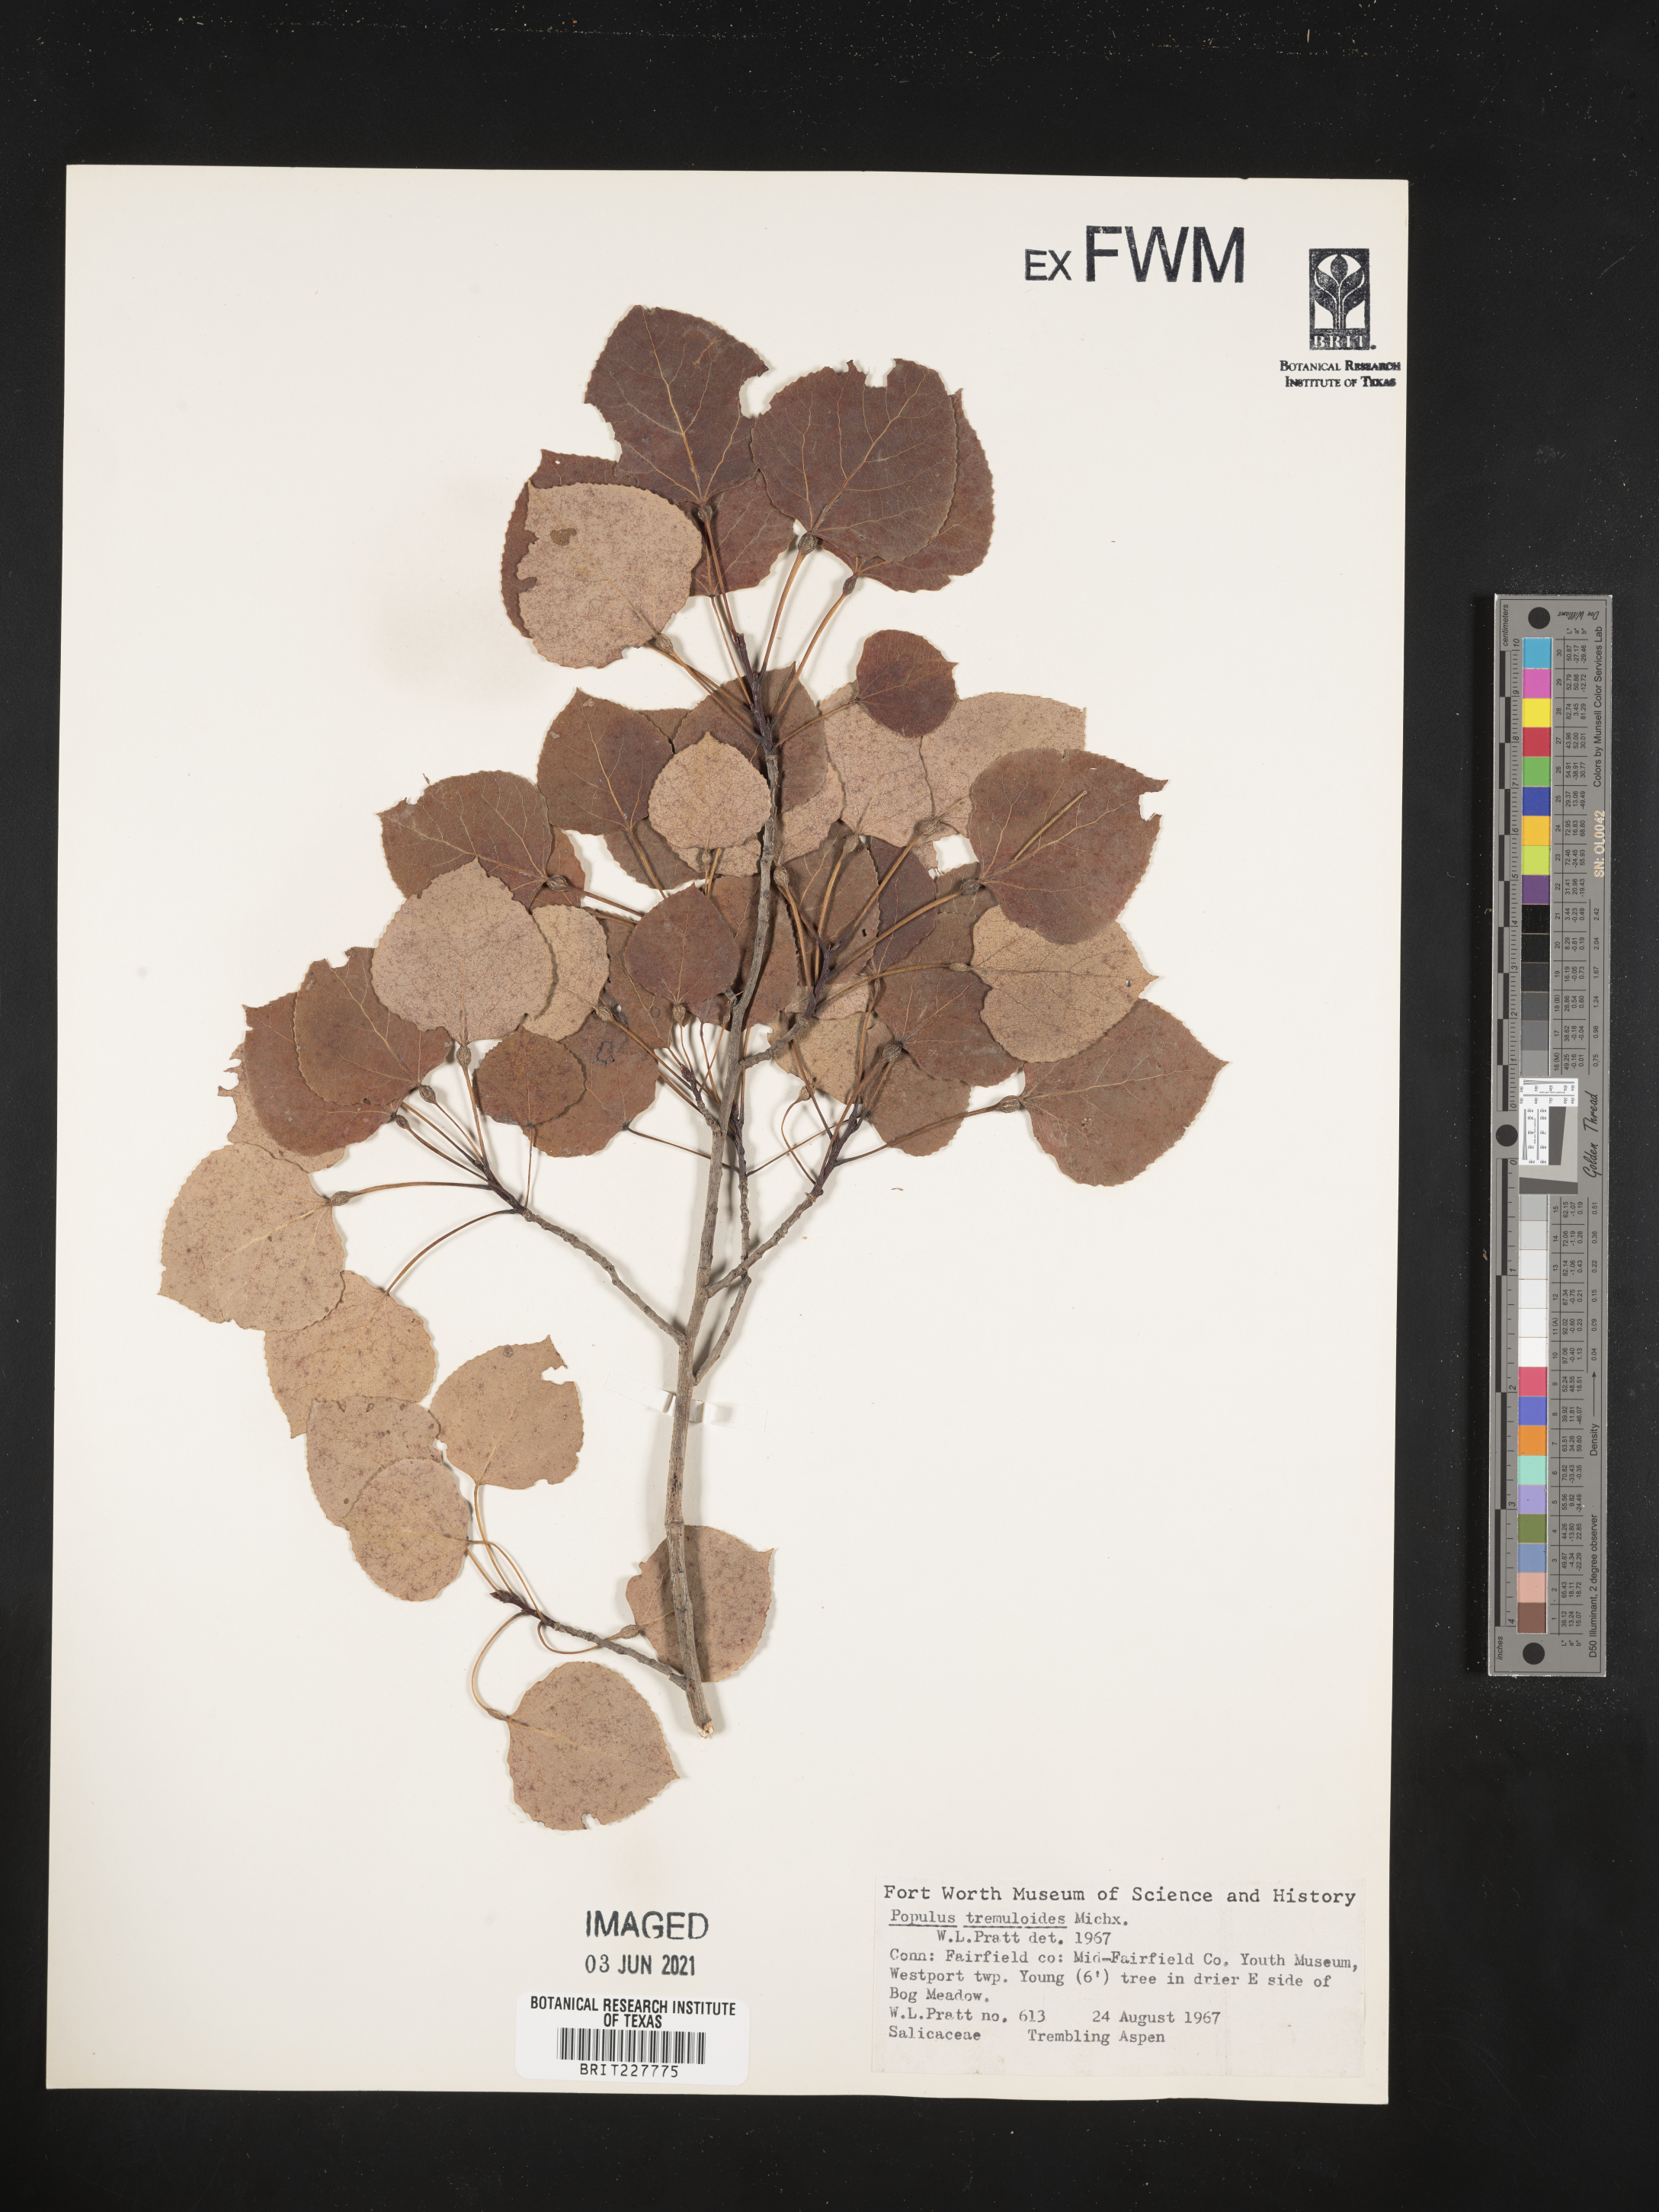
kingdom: Plantae
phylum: Tracheophyta
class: Magnoliopsida
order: Malpighiales
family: Salicaceae
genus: Populus
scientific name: Populus tremuloides
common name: Quaking aspen
